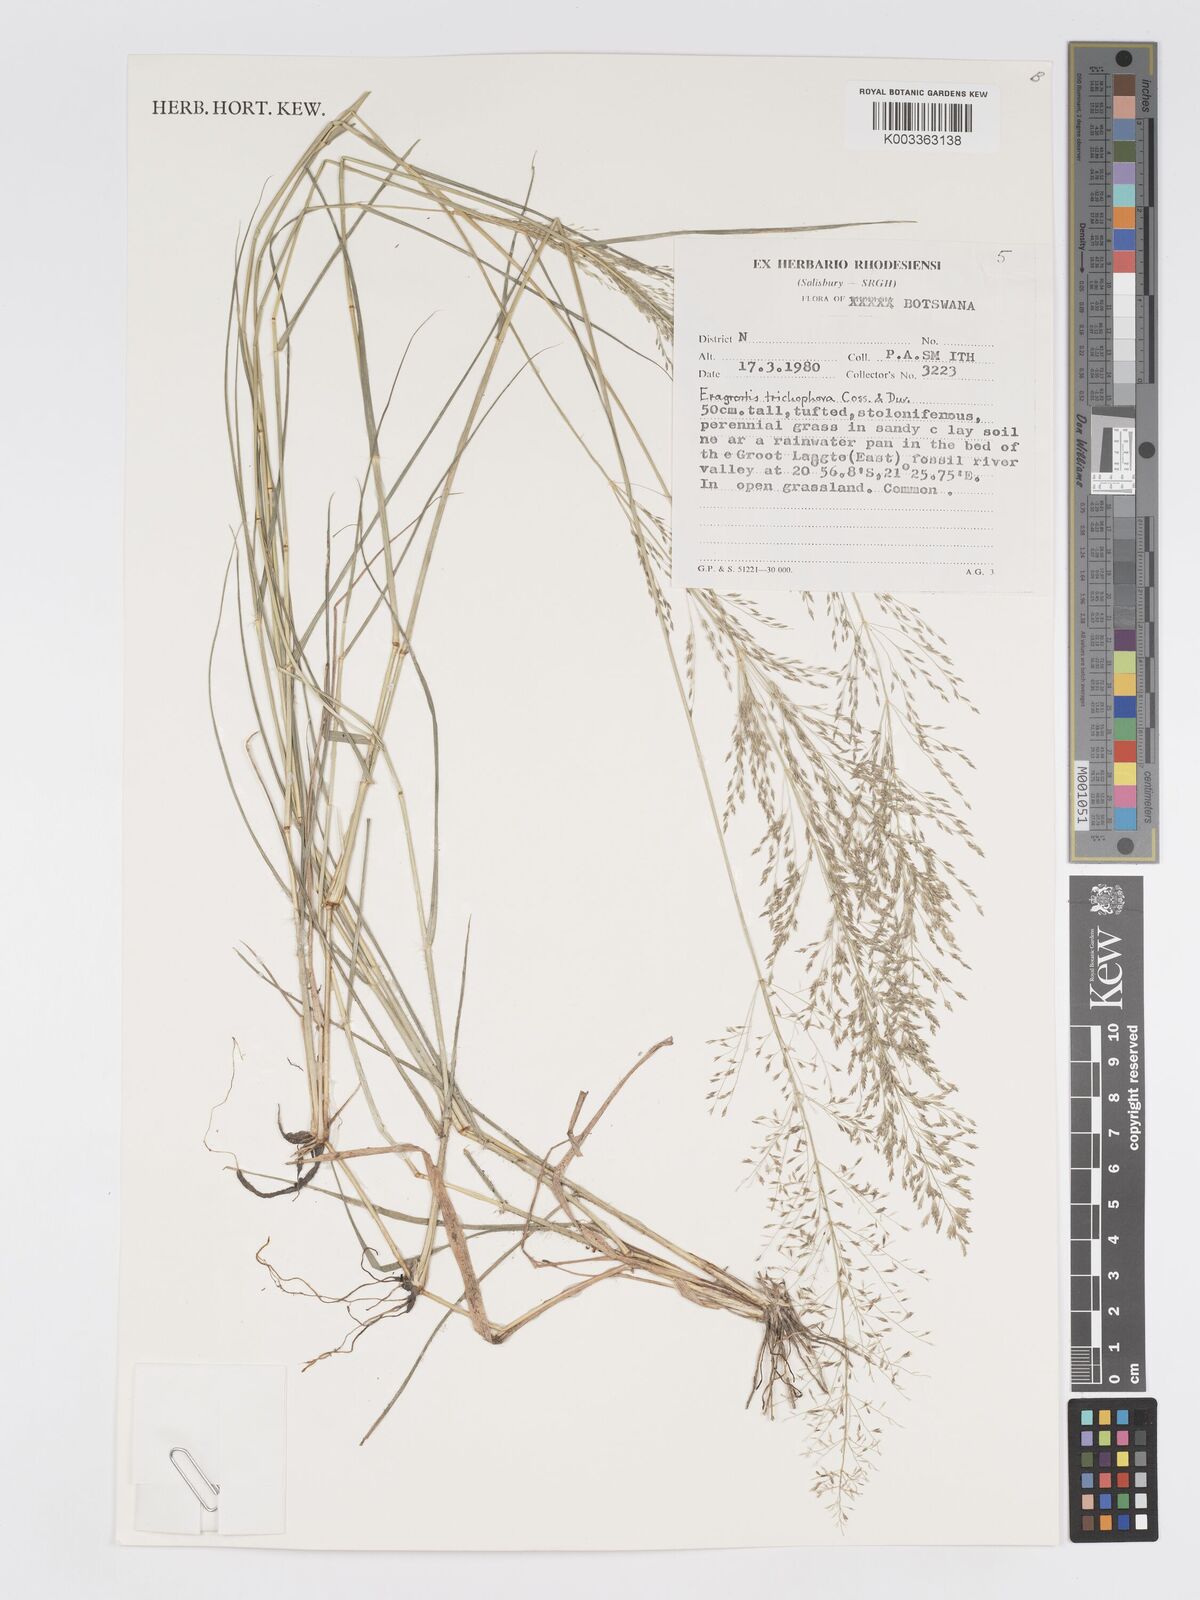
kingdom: Plantae
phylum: Tracheophyta
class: Liliopsida
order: Poales
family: Poaceae
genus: Eragrostis
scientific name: Eragrostis cylindriflora
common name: Cylinderflower lovegrass
